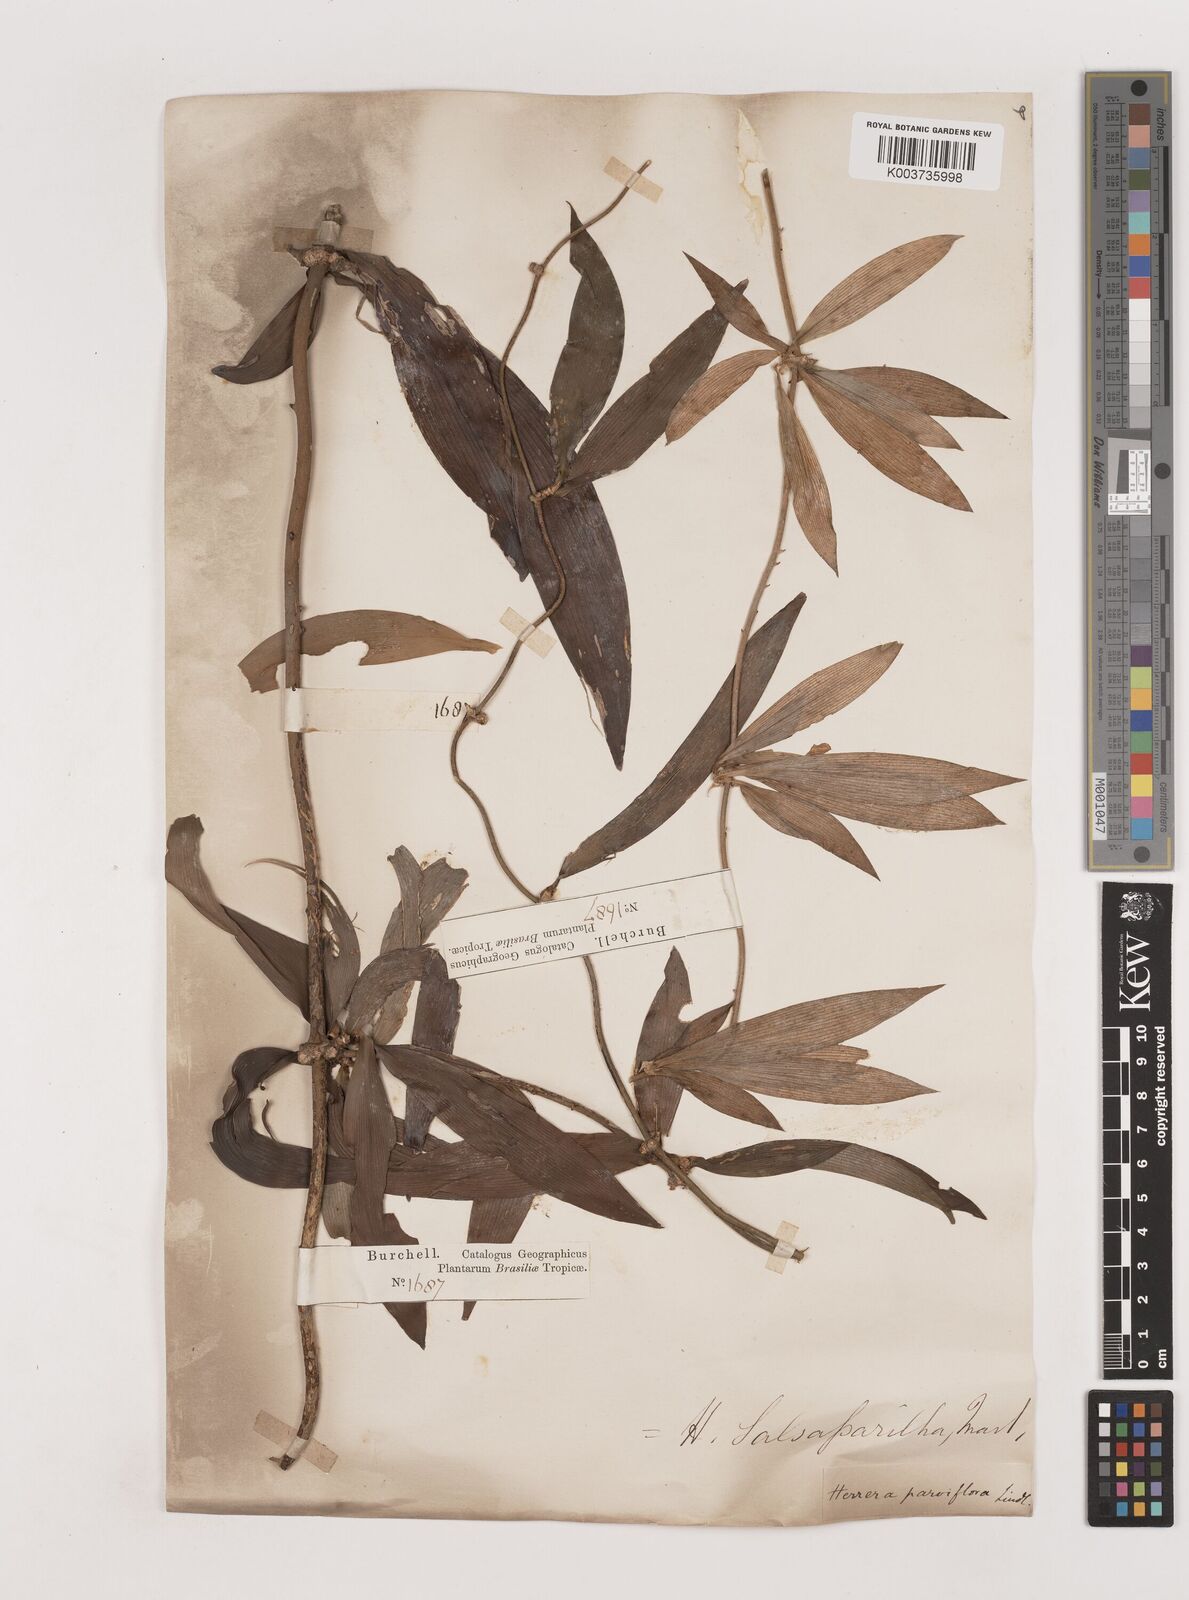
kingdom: Plantae
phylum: Tracheophyta
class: Liliopsida
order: Asparagales
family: Asparagaceae
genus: Herreria
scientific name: Herreria salsaparilha
